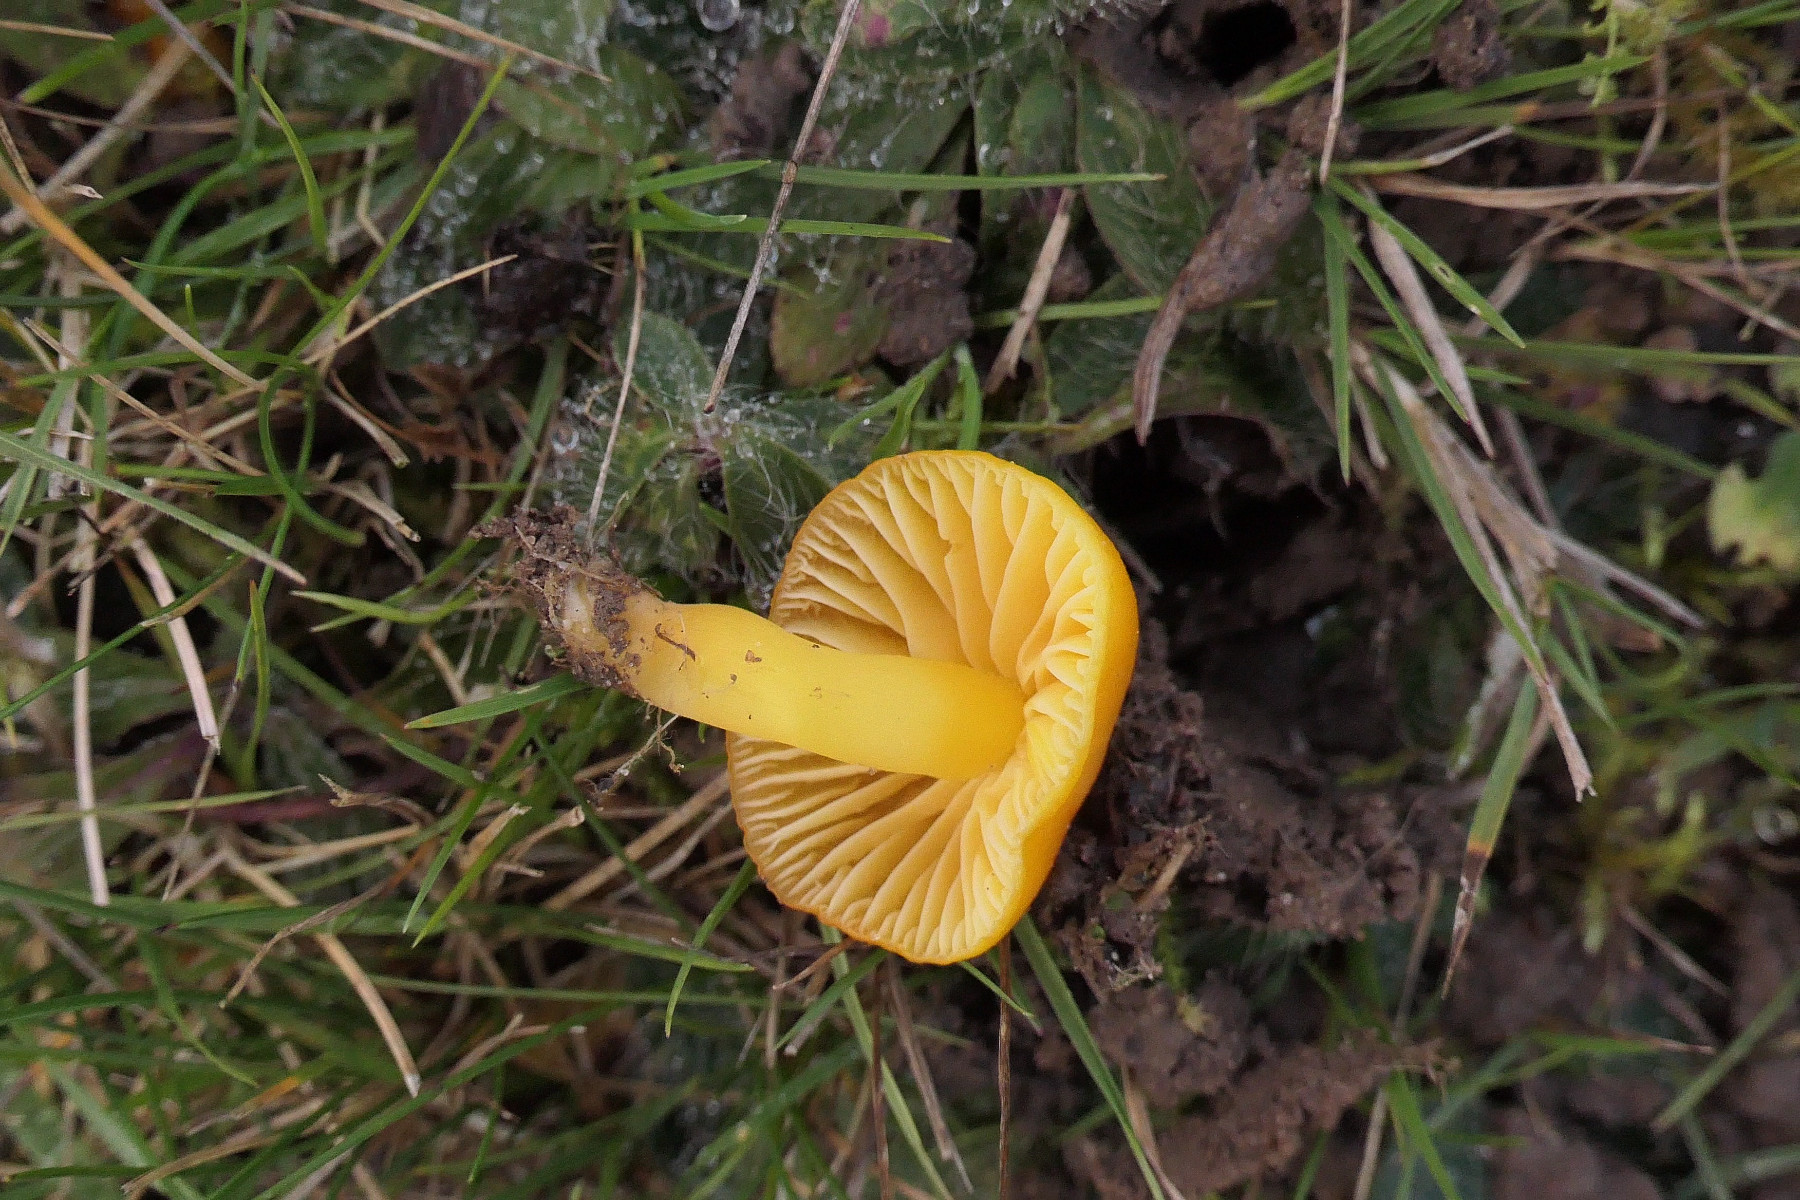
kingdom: Fungi
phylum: Basidiomycota
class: Agaricomycetes
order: Agaricales
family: Hygrophoraceae
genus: Hygrocybe
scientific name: Hygrocybe chlorophana
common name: gul vokshat
